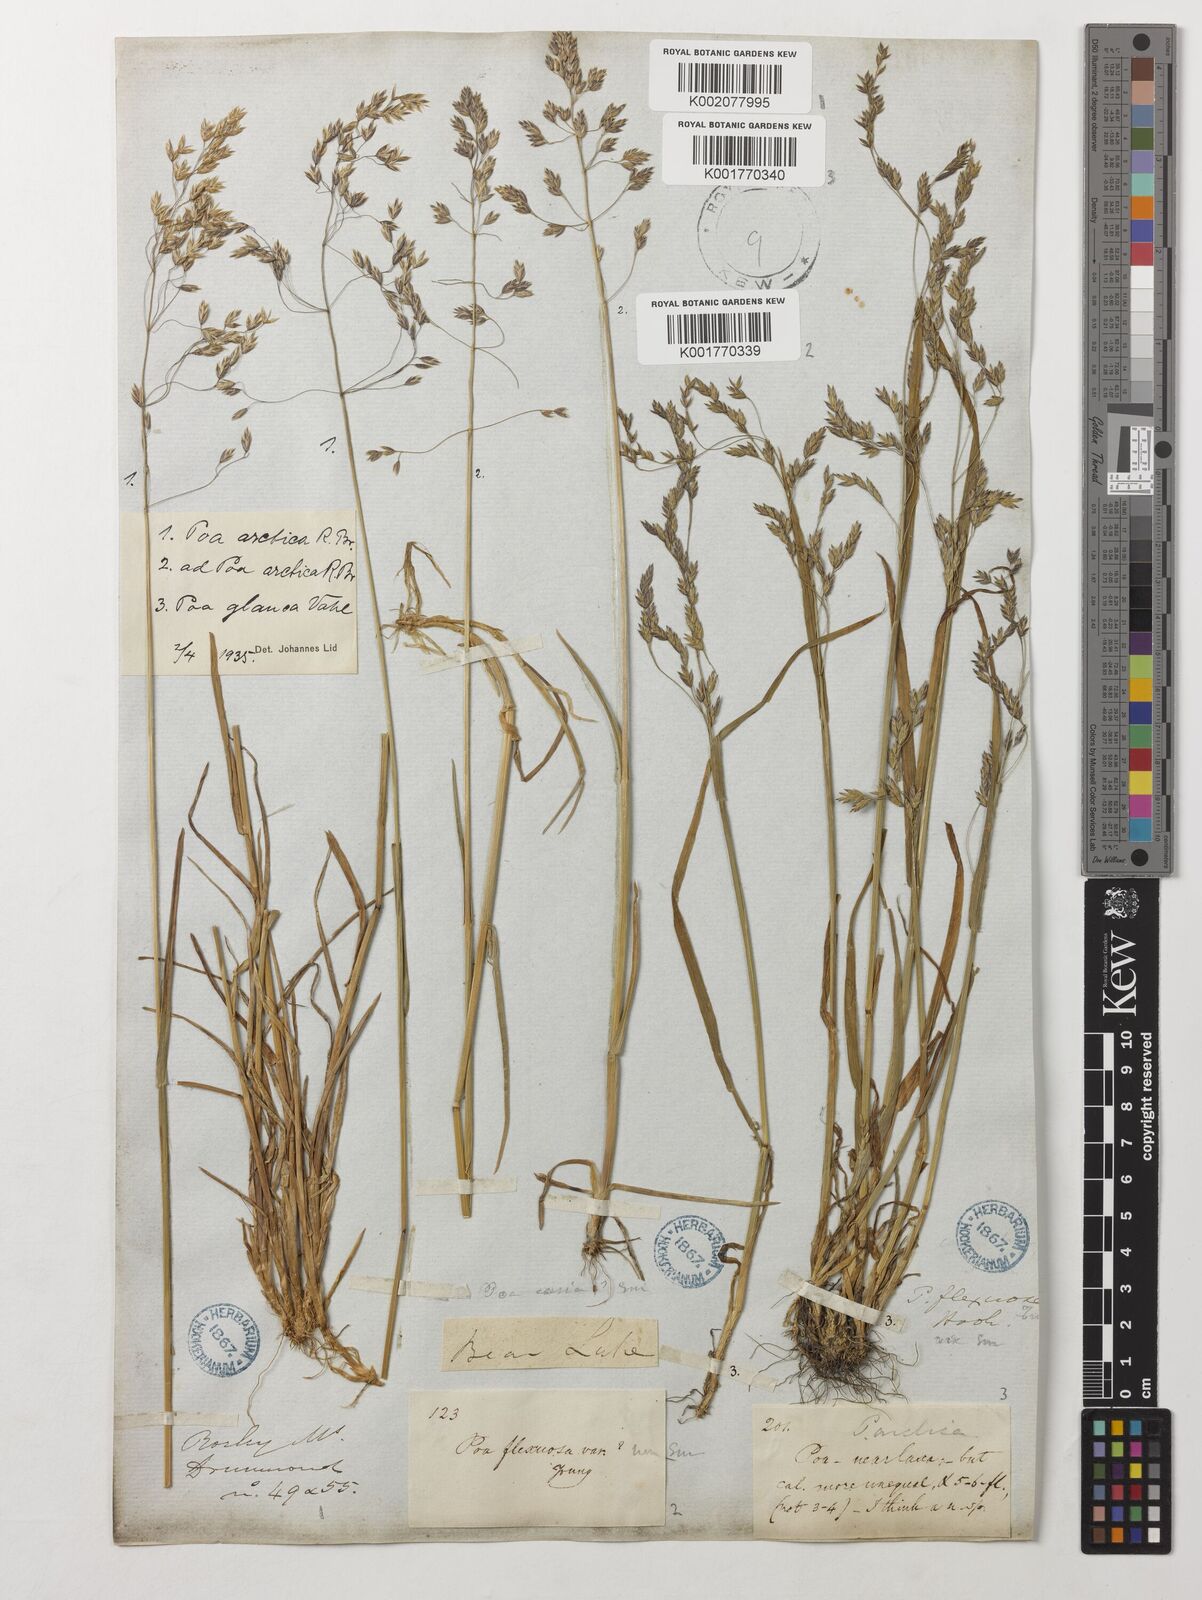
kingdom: Plantae
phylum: Tracheophyta
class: Liliopsida
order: Poales
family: Poaceae
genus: Poa
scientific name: Poa arctica
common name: Arctic bluegrass
